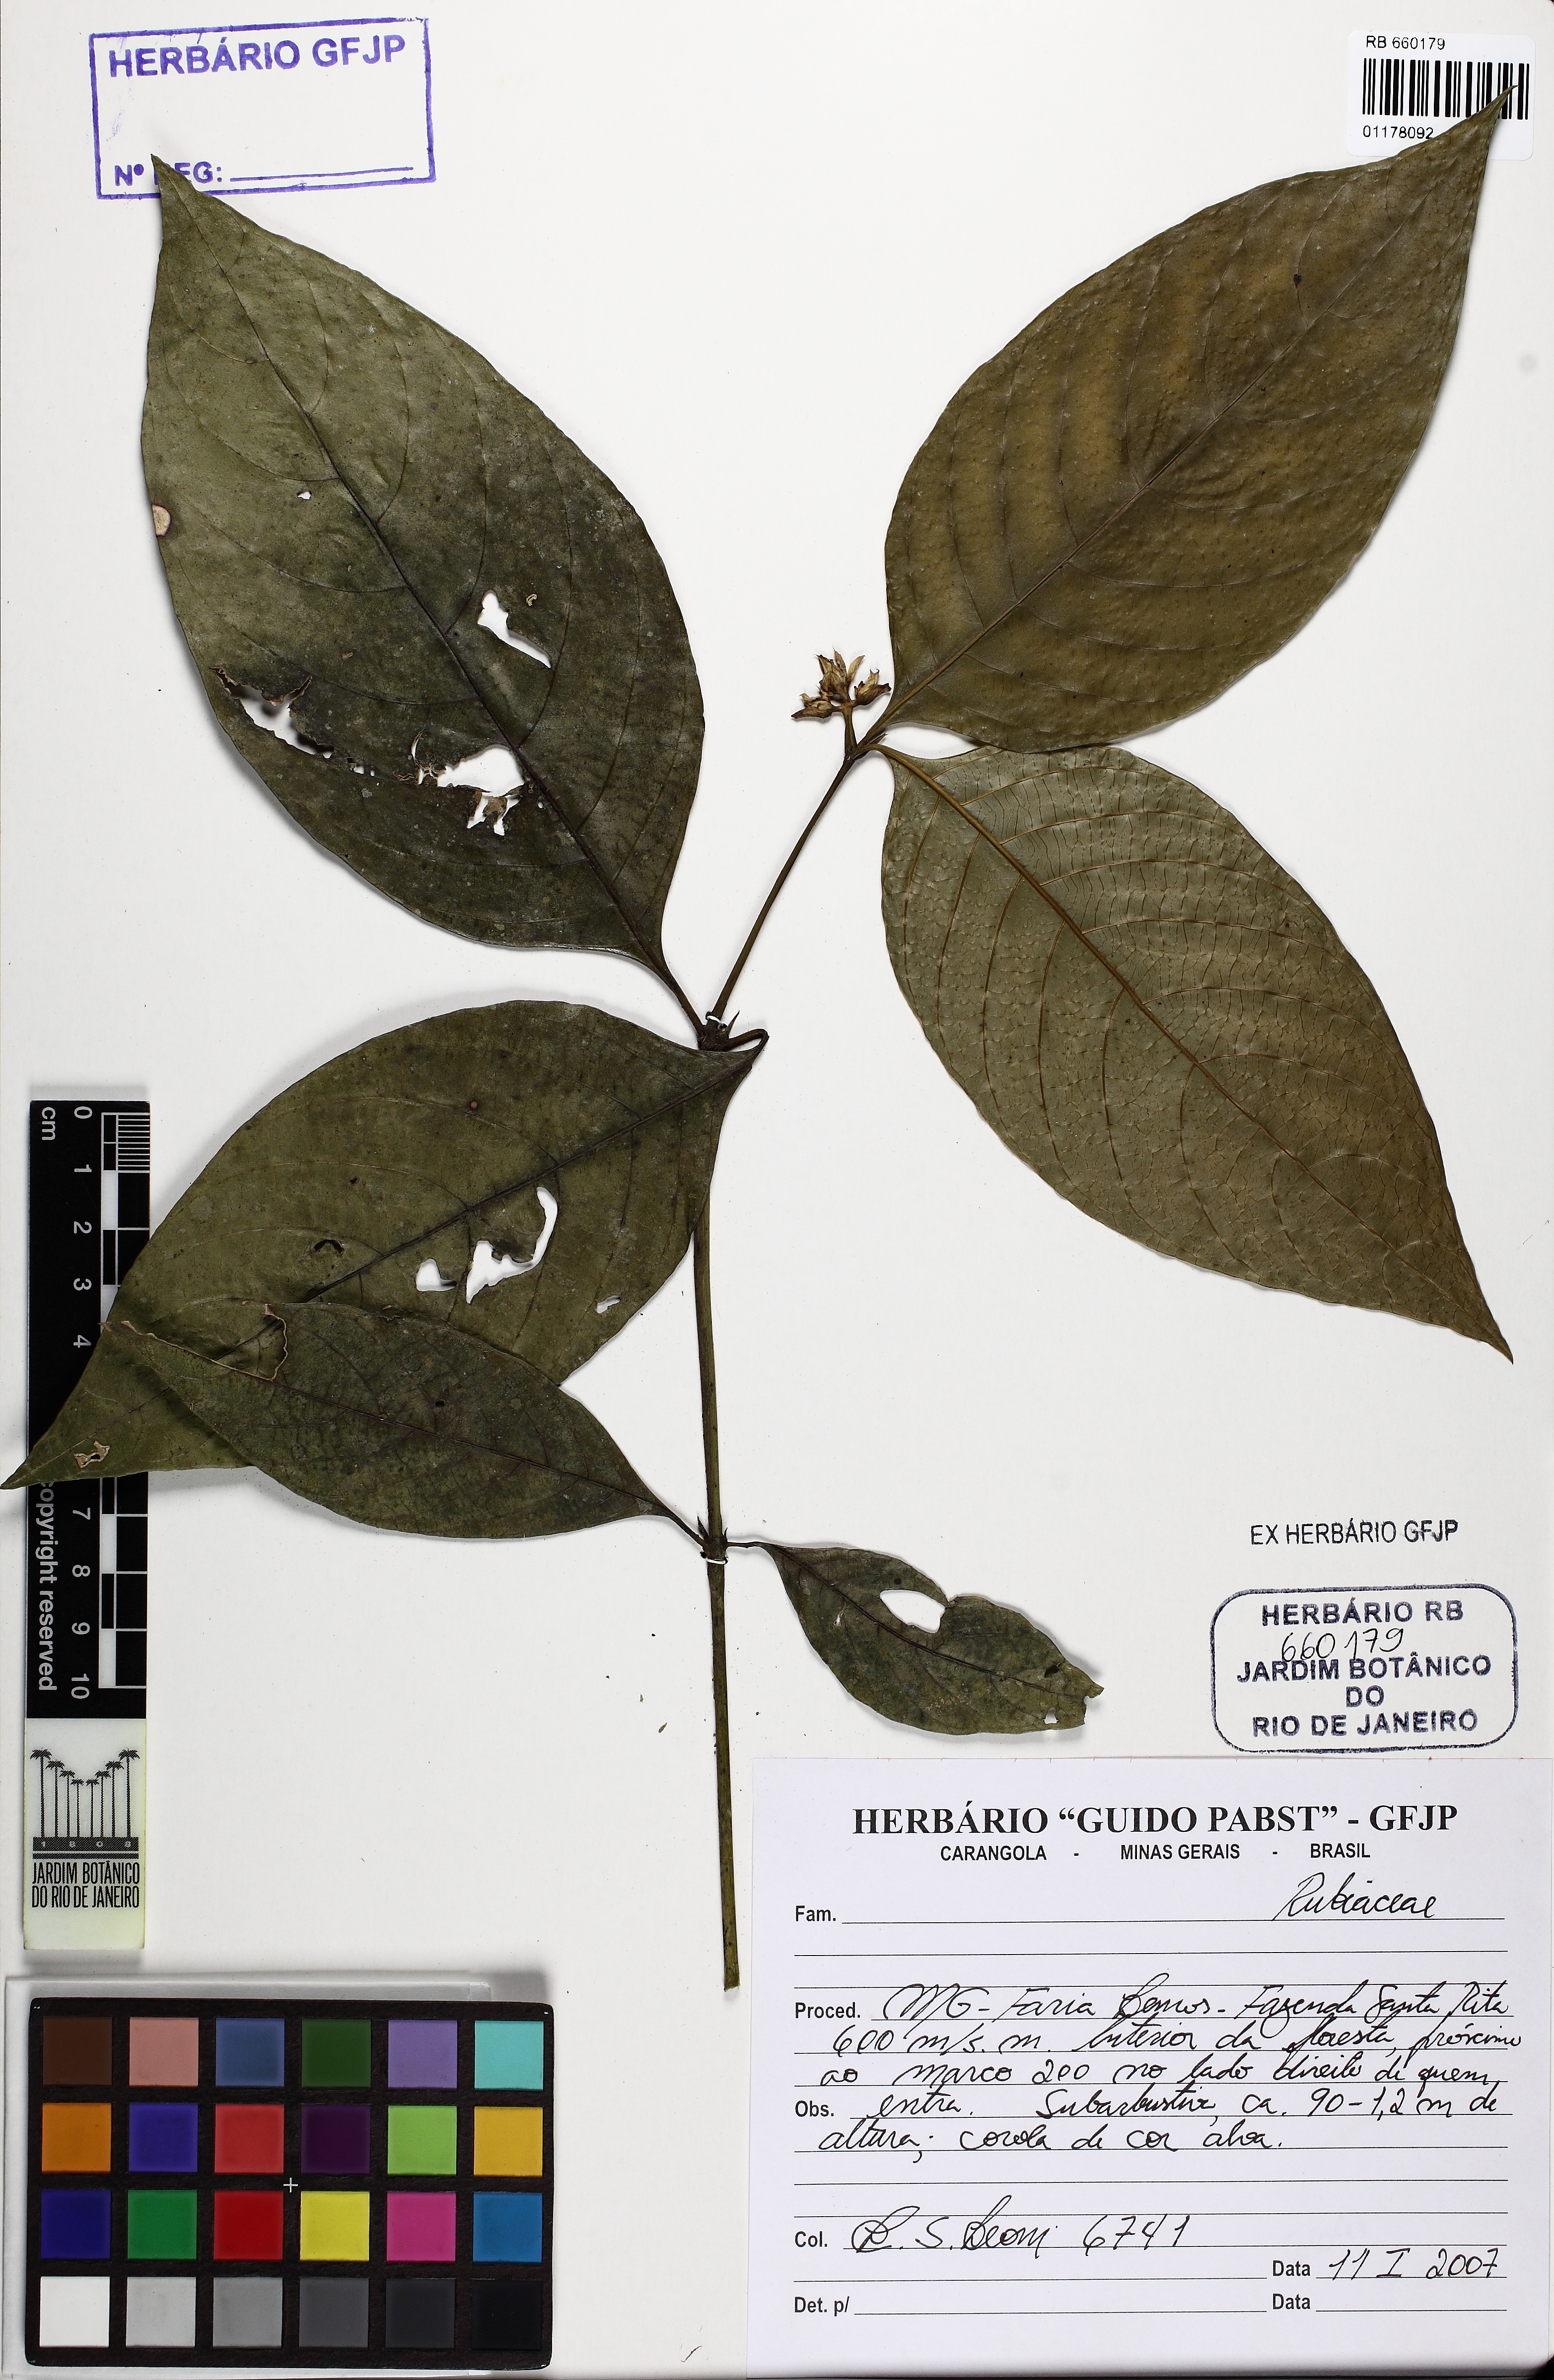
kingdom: Plantae
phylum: Tracheophyta
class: Magnoliopsida
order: Gentianales
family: Rubiaceae
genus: Palicourea
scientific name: Palicourea hoffmannseggiana
